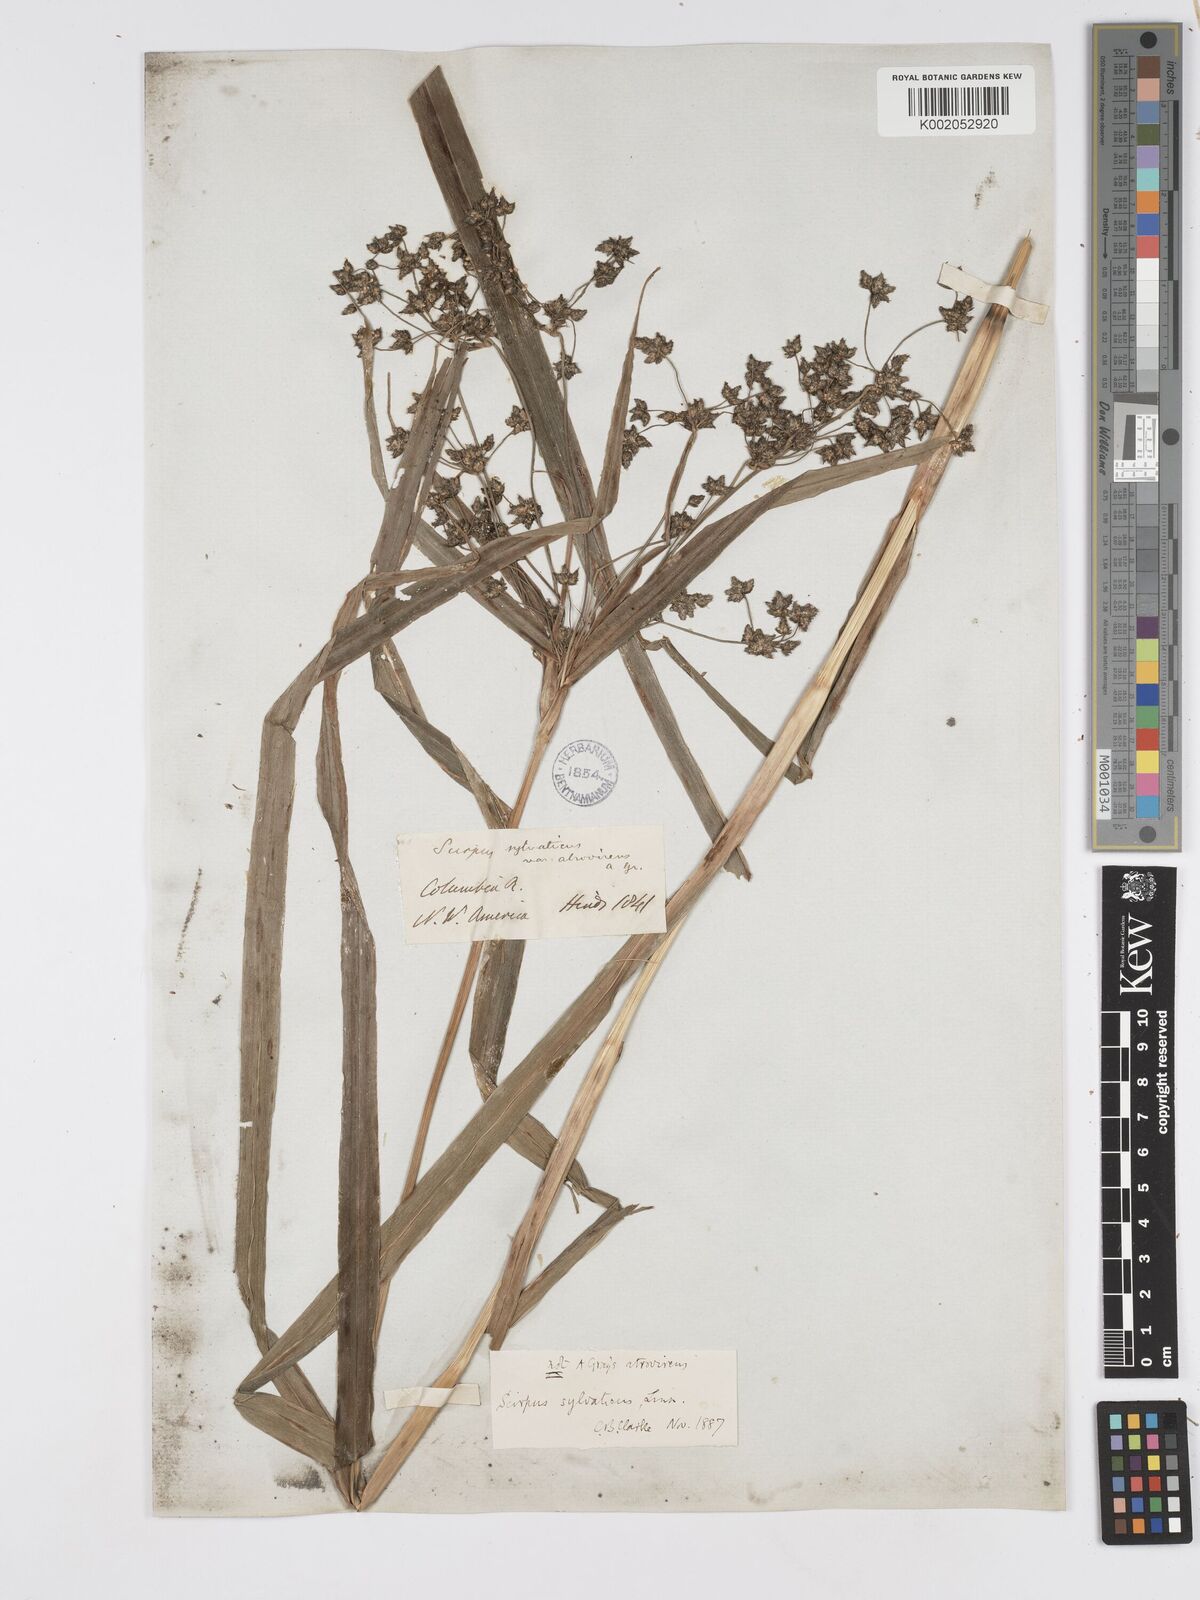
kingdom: Plantae
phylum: Tracheophyta
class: Liliopsida
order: Poales
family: Cyperaceae
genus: Scirpus
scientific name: Scirpus sylvaticus
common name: Wood club-rush
